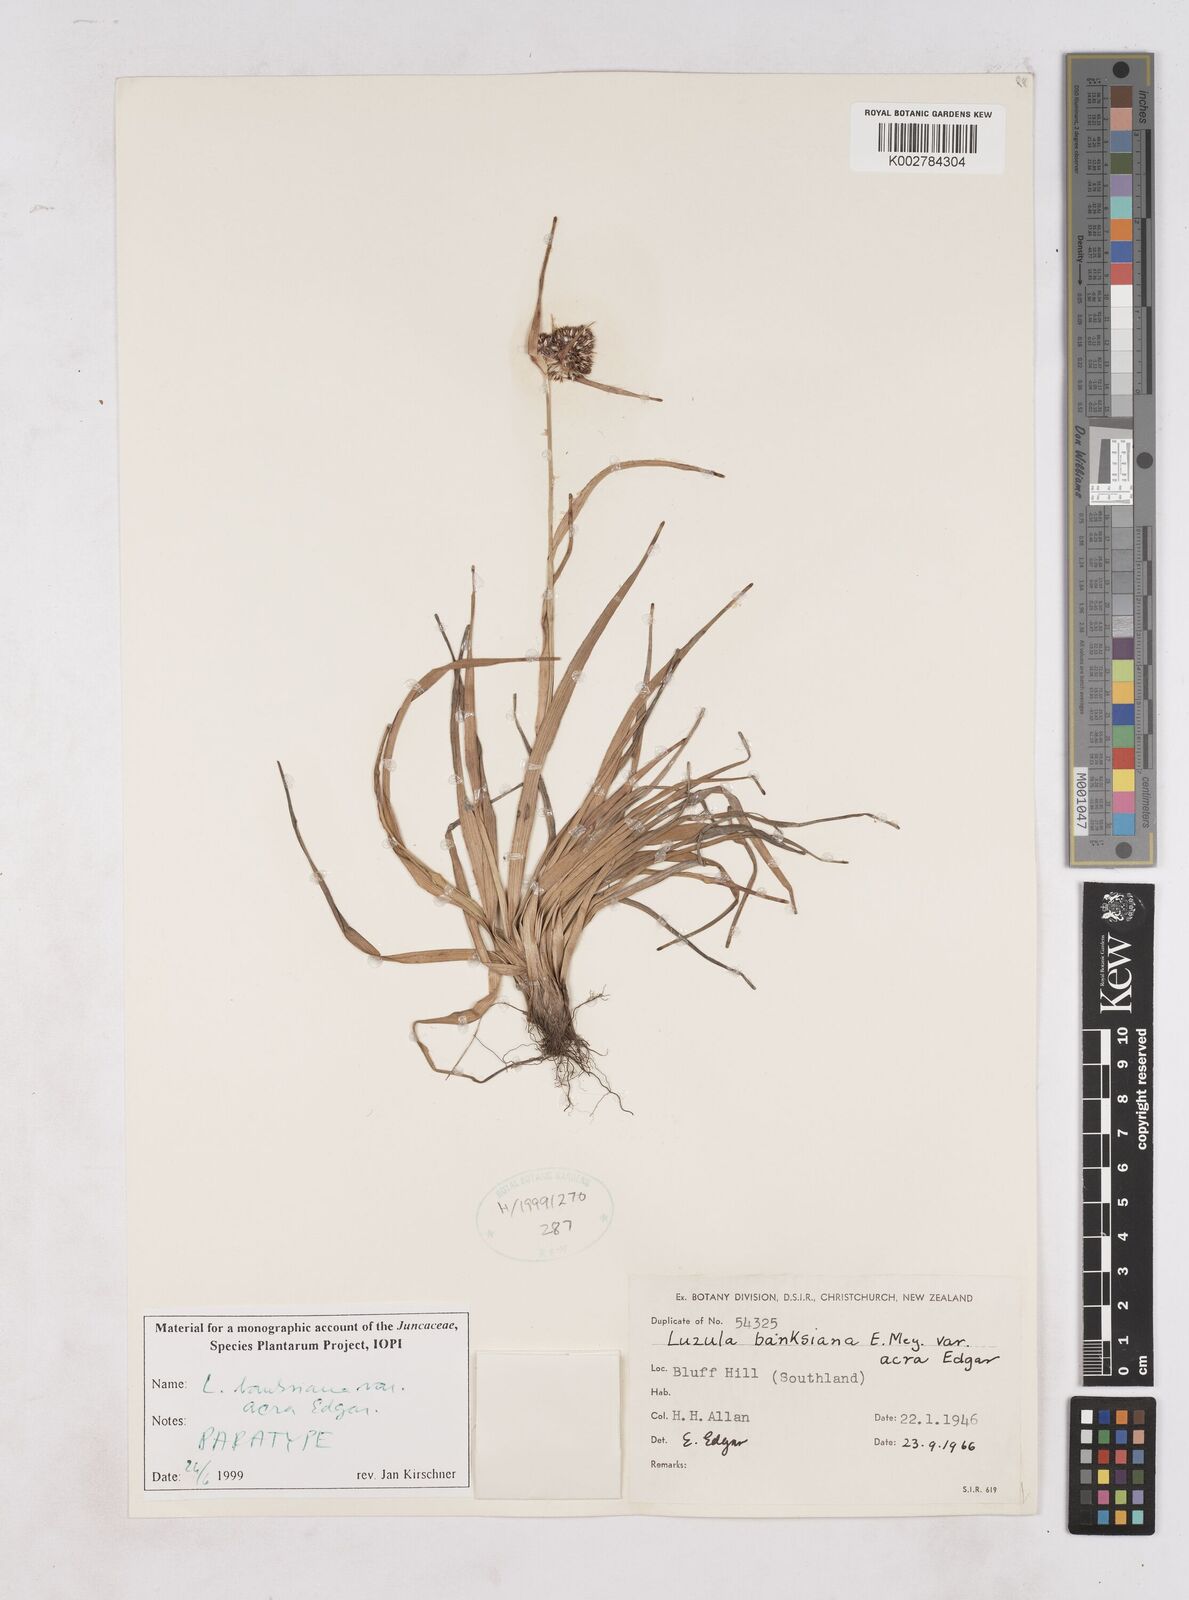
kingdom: Plantae
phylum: Tracheophyta
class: Liliopsida
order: Poales
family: Juncaceae
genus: Luzula
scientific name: Luzula banksiana
